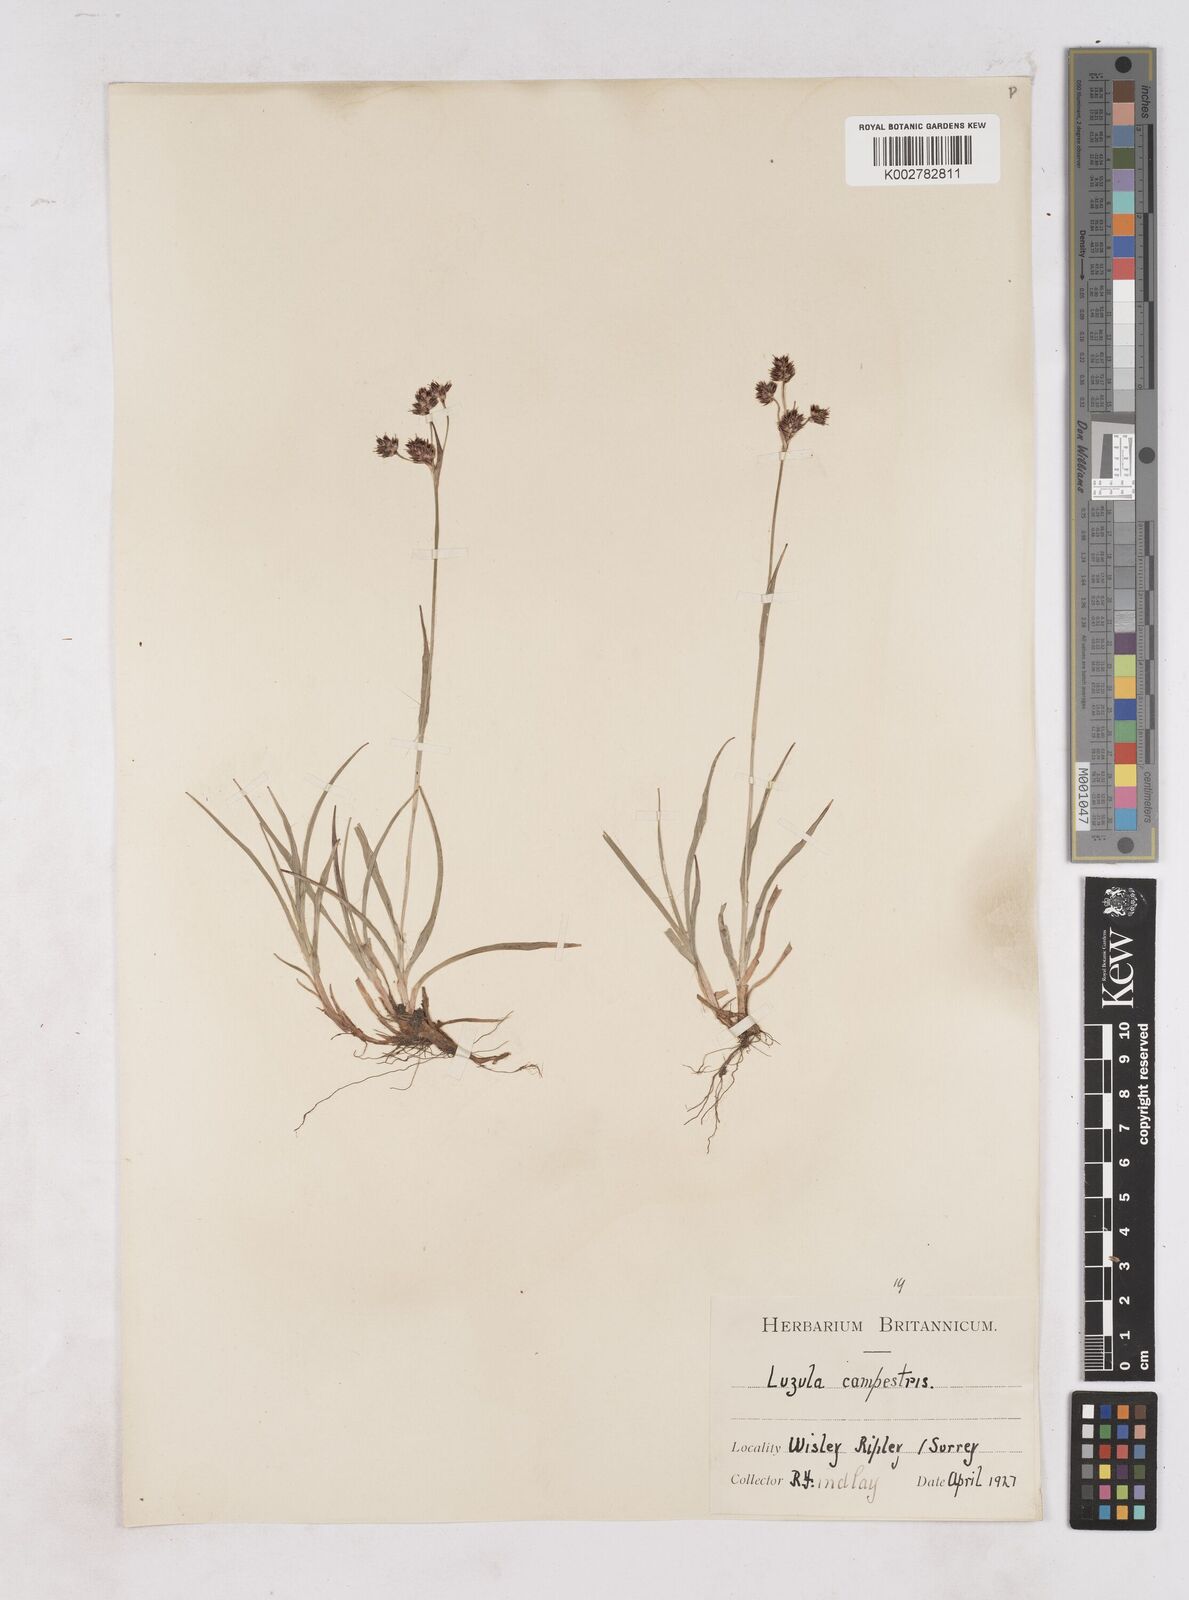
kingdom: Plantae
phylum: Tracheophyta
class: Liliopsida
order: Poales
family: Juncaceae
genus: Luzula
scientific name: Luzula campestris
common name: Field wood-rush
